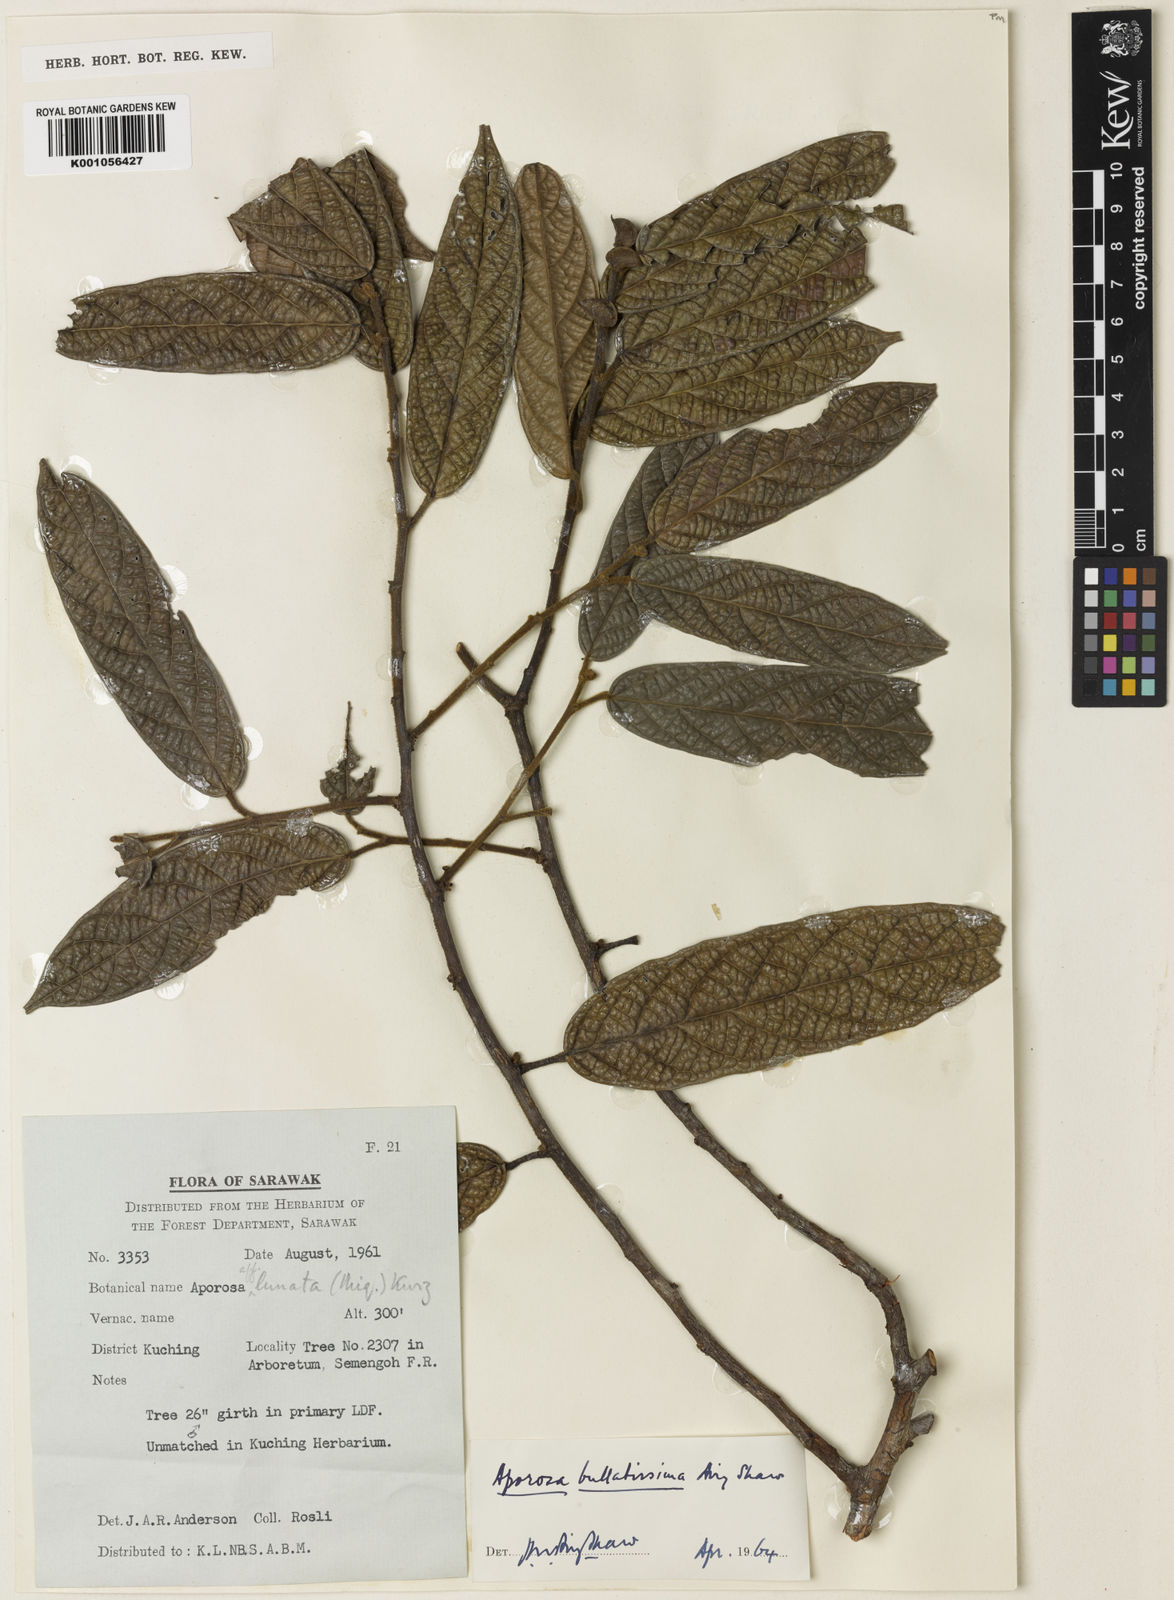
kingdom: Plantae
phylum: Tracheophyta
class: Magnoliopsida
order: Malpighiales
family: Phyllanthaceae
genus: Aporosa
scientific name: Aporosa bullatissima
